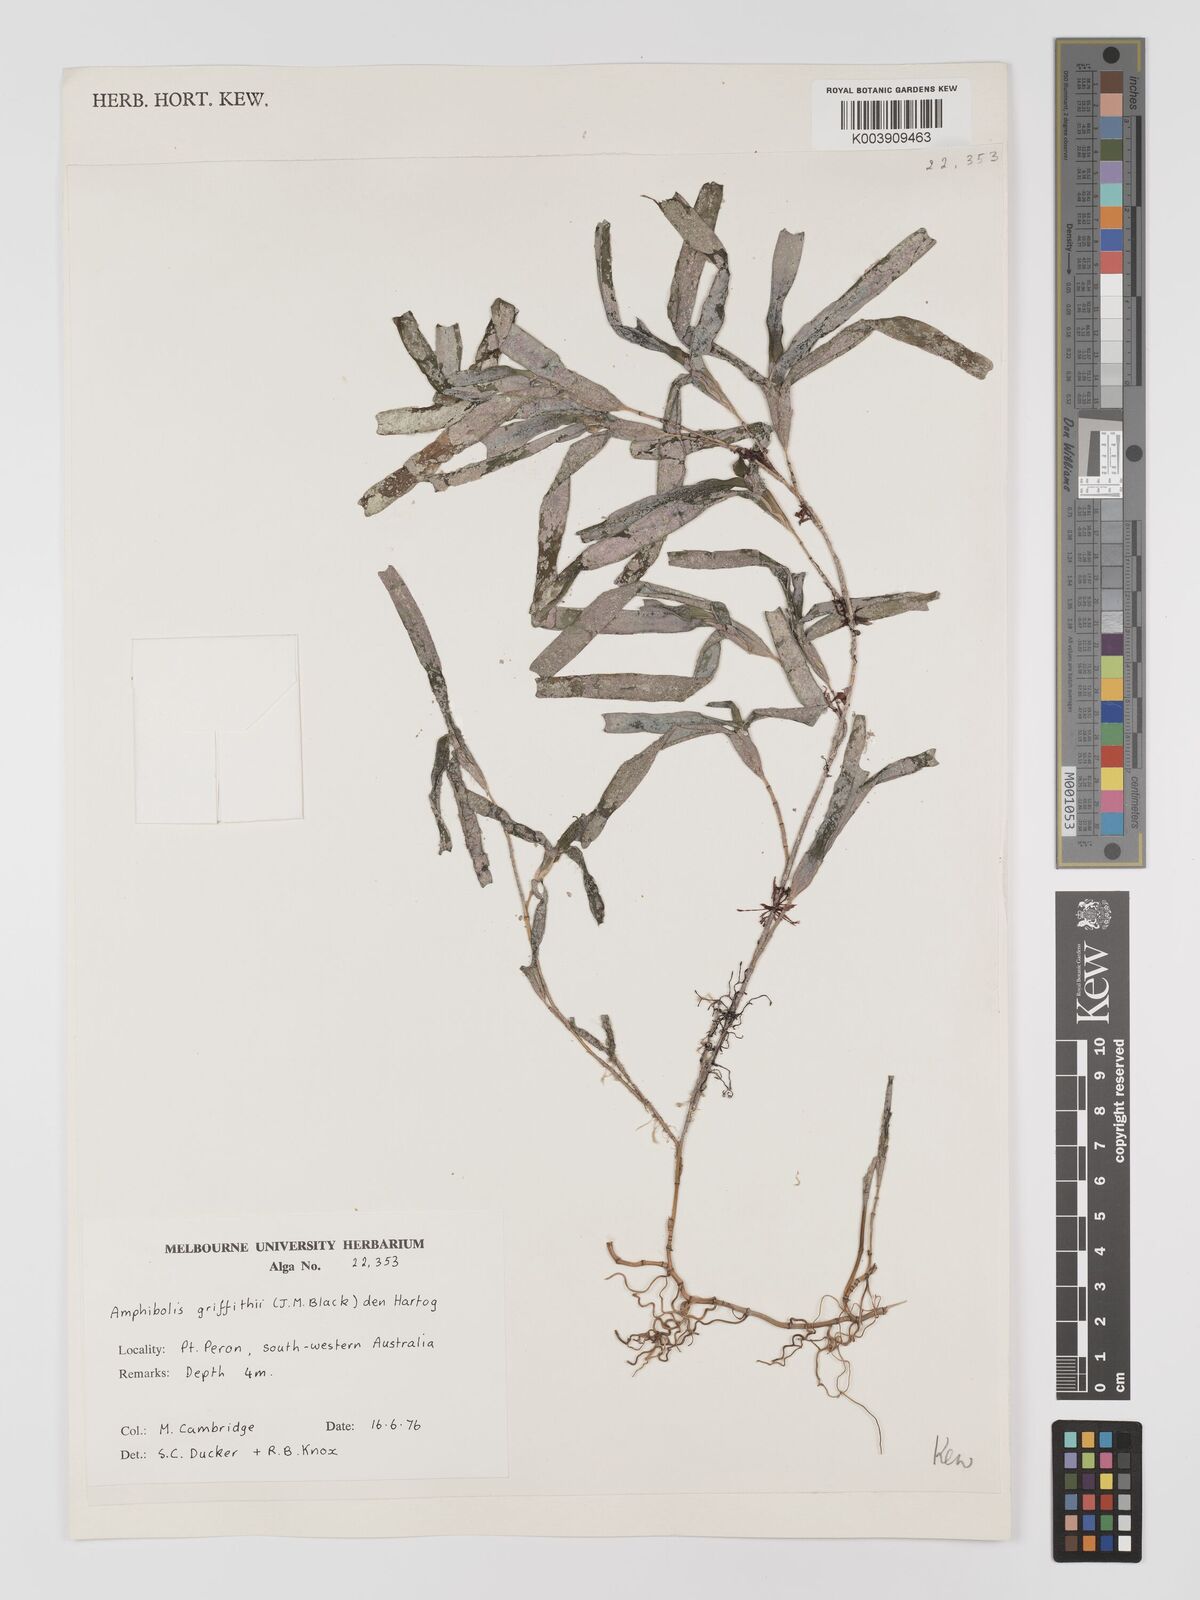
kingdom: Plantae
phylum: Tracheophyta
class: Liliopsida
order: Alismatales
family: Cymodoceaceae
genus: Amphibolis
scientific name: Amphibolis antarctica
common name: Species code: aa
